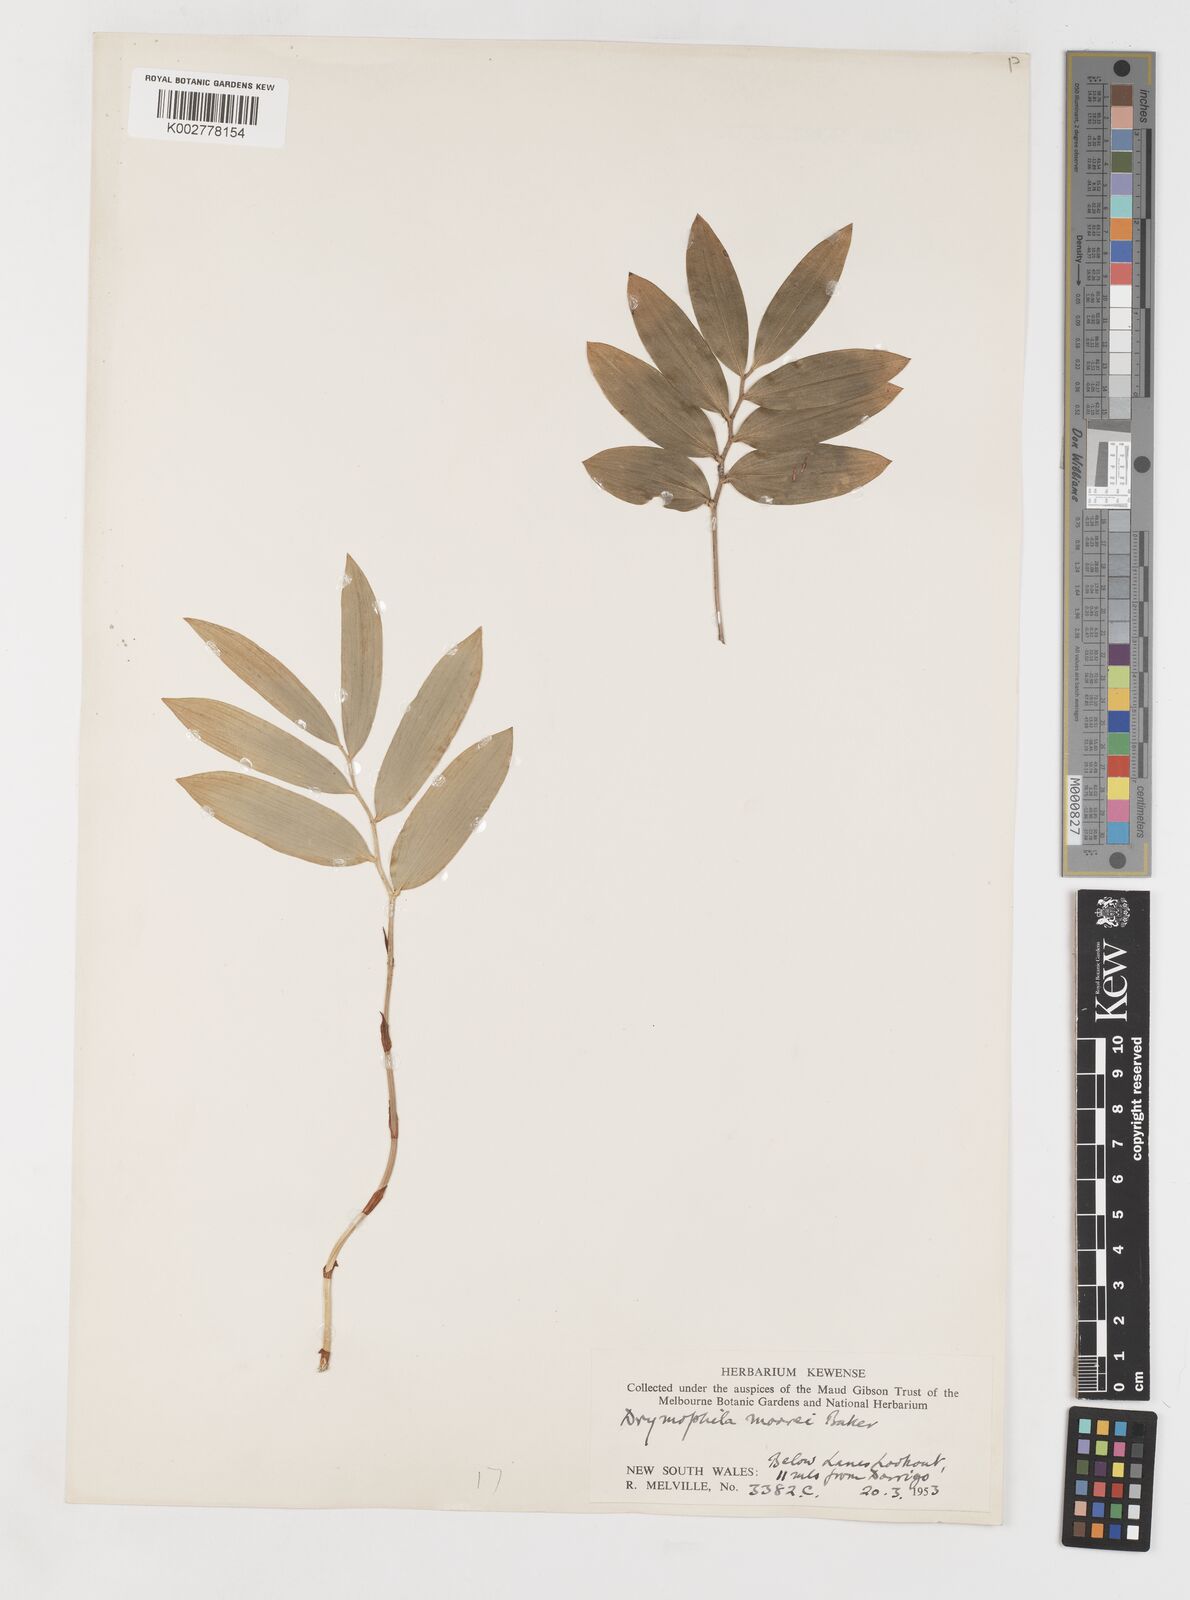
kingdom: Plantae
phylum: Tracheophyta
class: Liliopsida
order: Liliales
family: Alstroemeriaceae
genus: Drymophila
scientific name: Drymophila moorei
